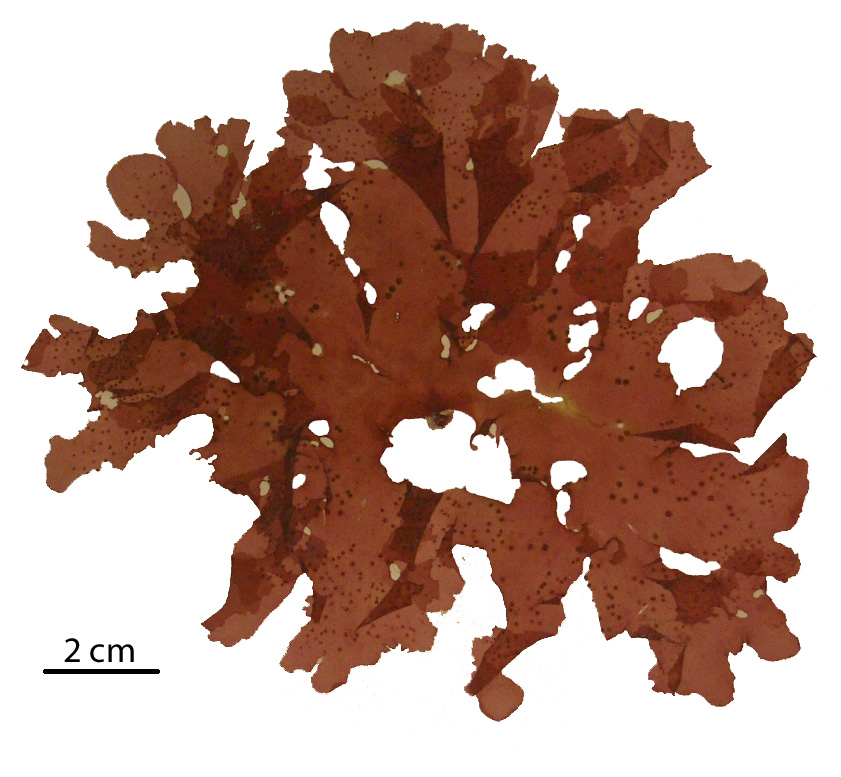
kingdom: Plantae
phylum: Rhodophyta
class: Florideophyceae
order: Gigartinales
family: Kallymeniaceae
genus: Callophyllis
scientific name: Callophyllis
